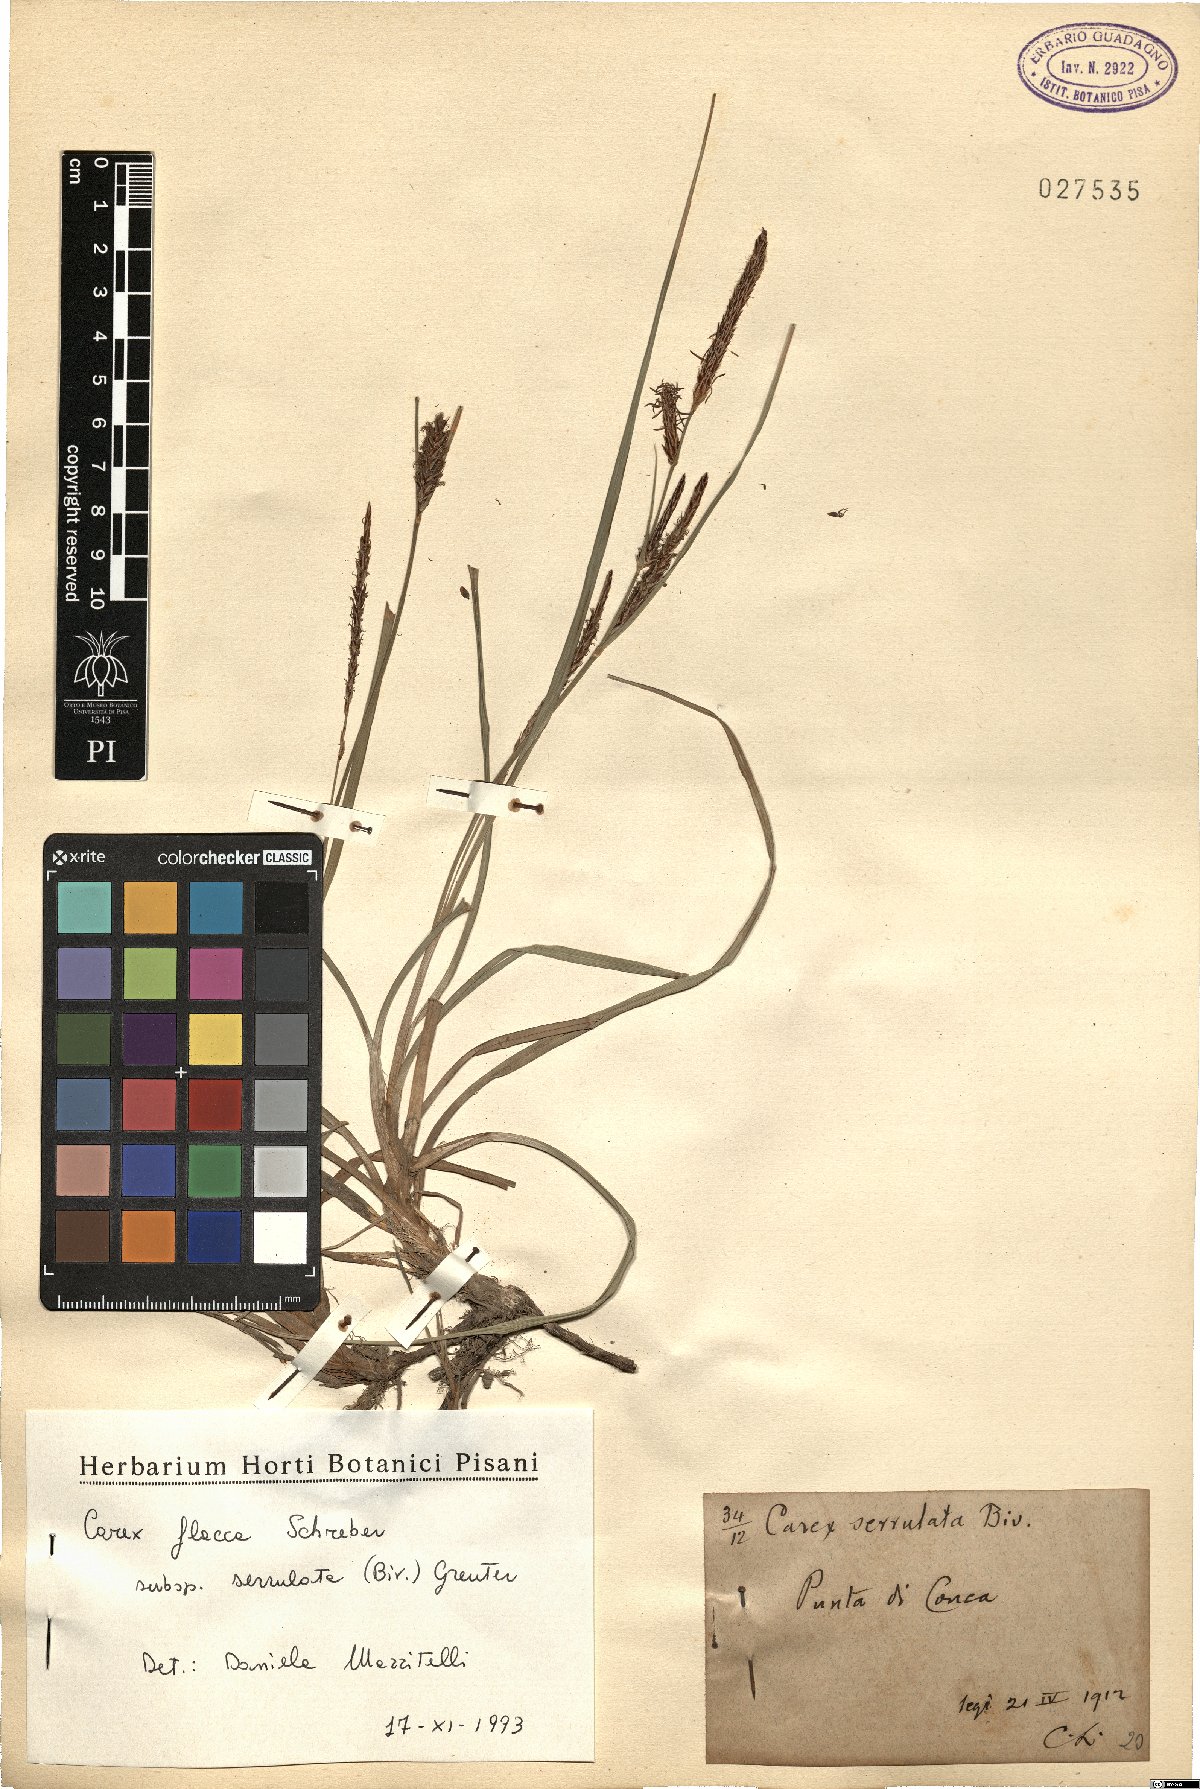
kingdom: Plantae
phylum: Tracheophyta
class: Liliopsida
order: Poales
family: Cyperaceae
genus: Carex
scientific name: Carex flacca
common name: Glaucous sedge
